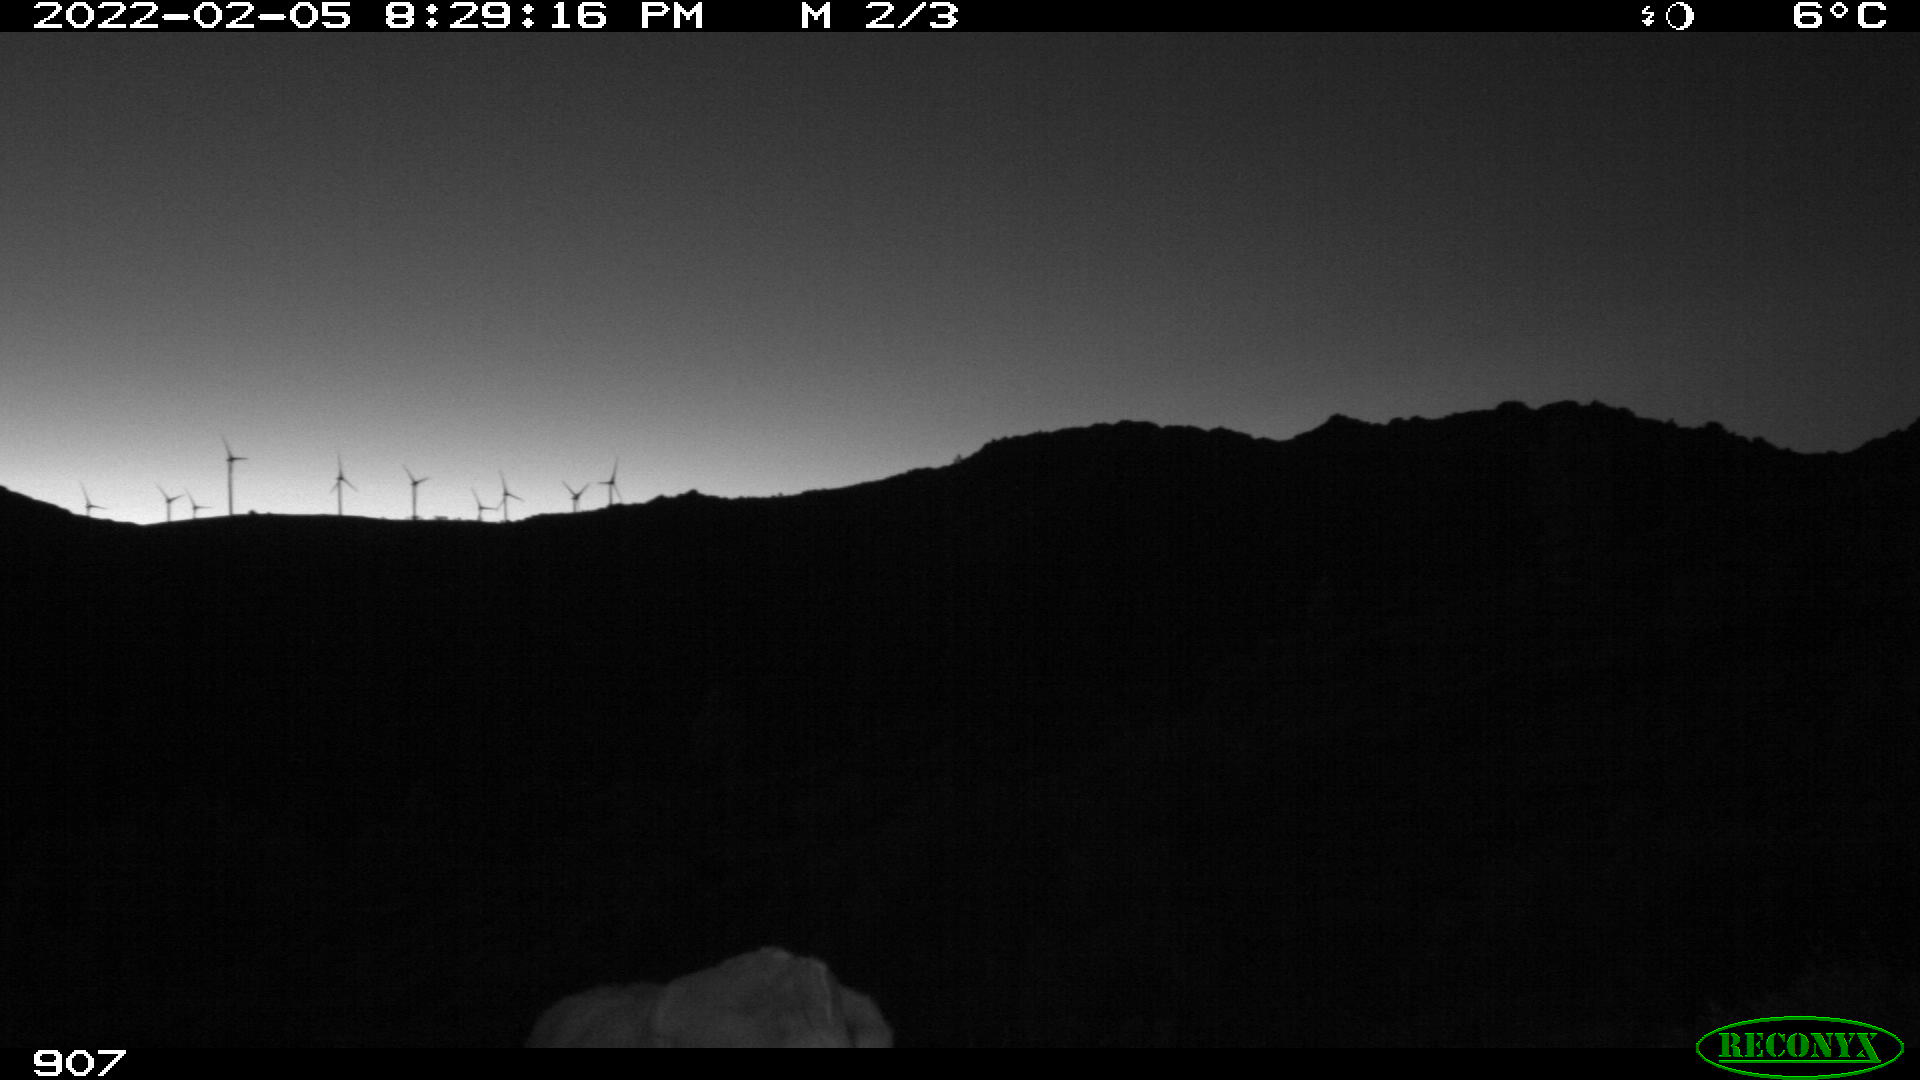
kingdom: Animalia
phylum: Chordata
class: Mammalia
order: Artiodactyla
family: Bovidae
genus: Bos
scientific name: Bos taurus
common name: Domesticated cattle
